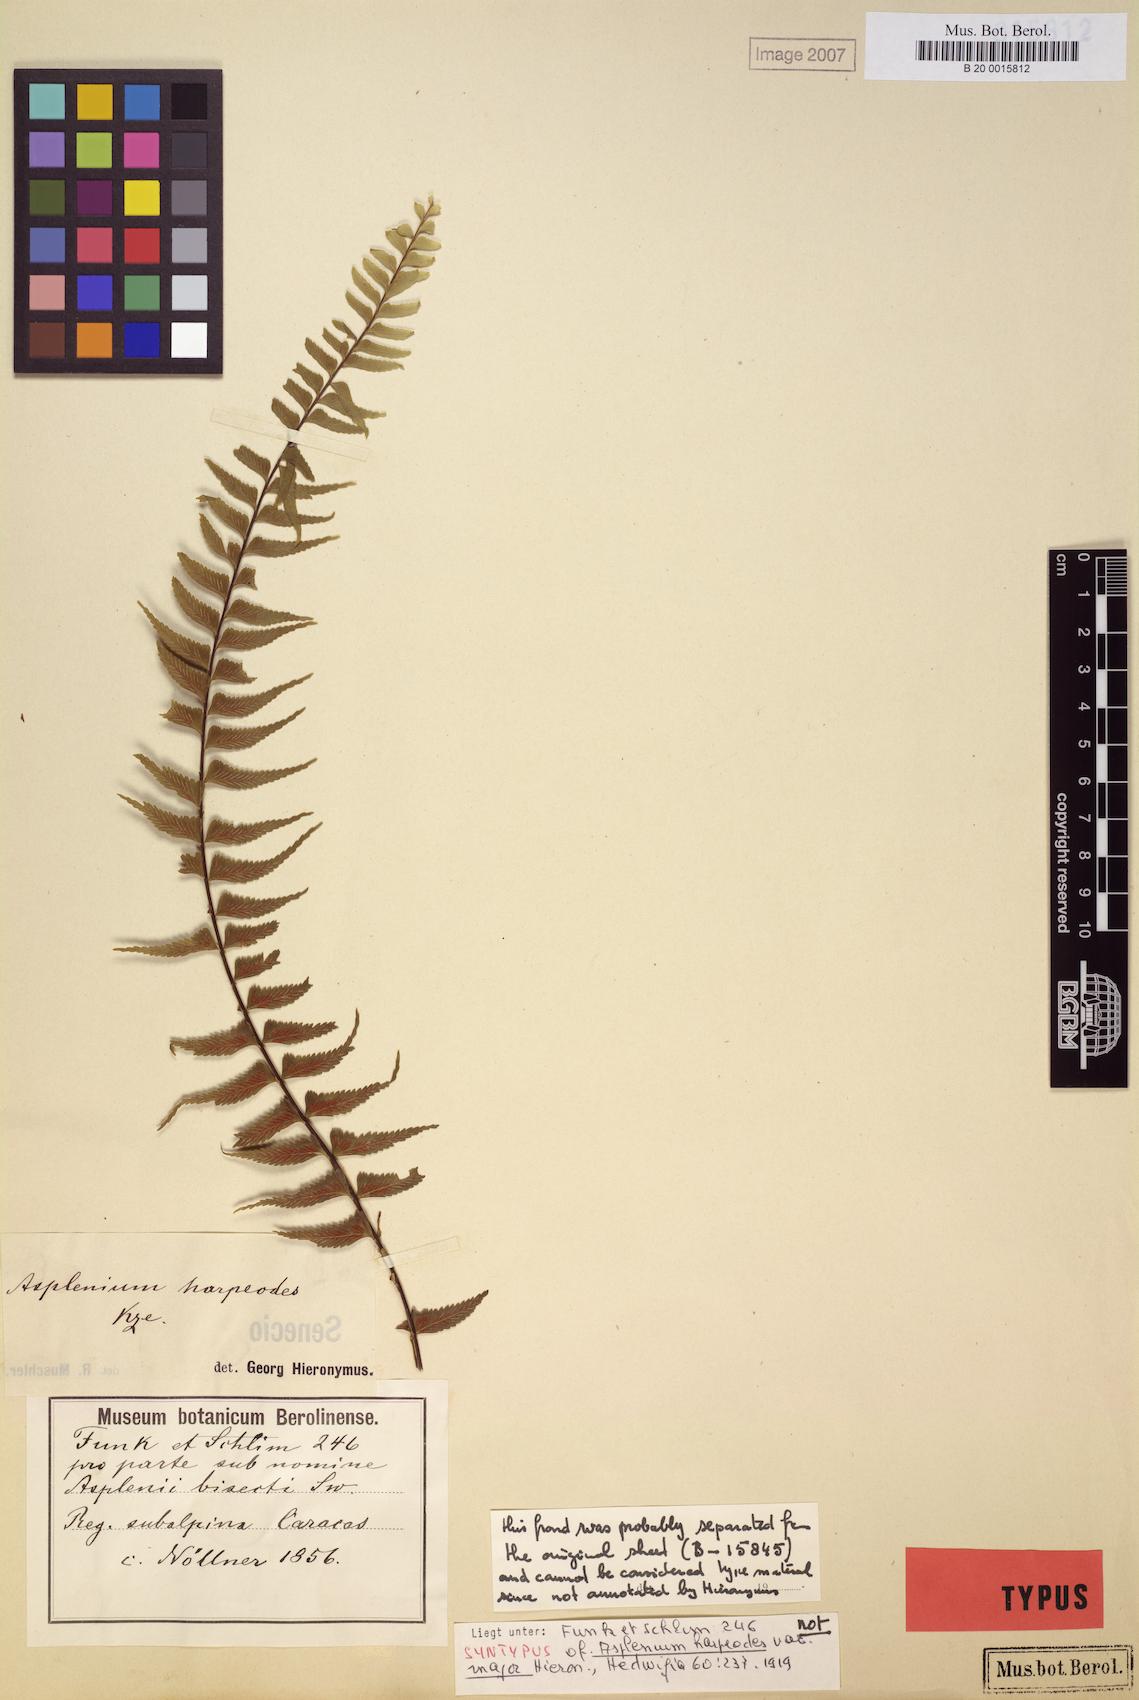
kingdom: Plantae
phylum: Tracheophyta
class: Polypodiopsida
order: Polypodiales
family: Aspleniaceae
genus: Asplenium
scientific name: Asplenium harpeodes
